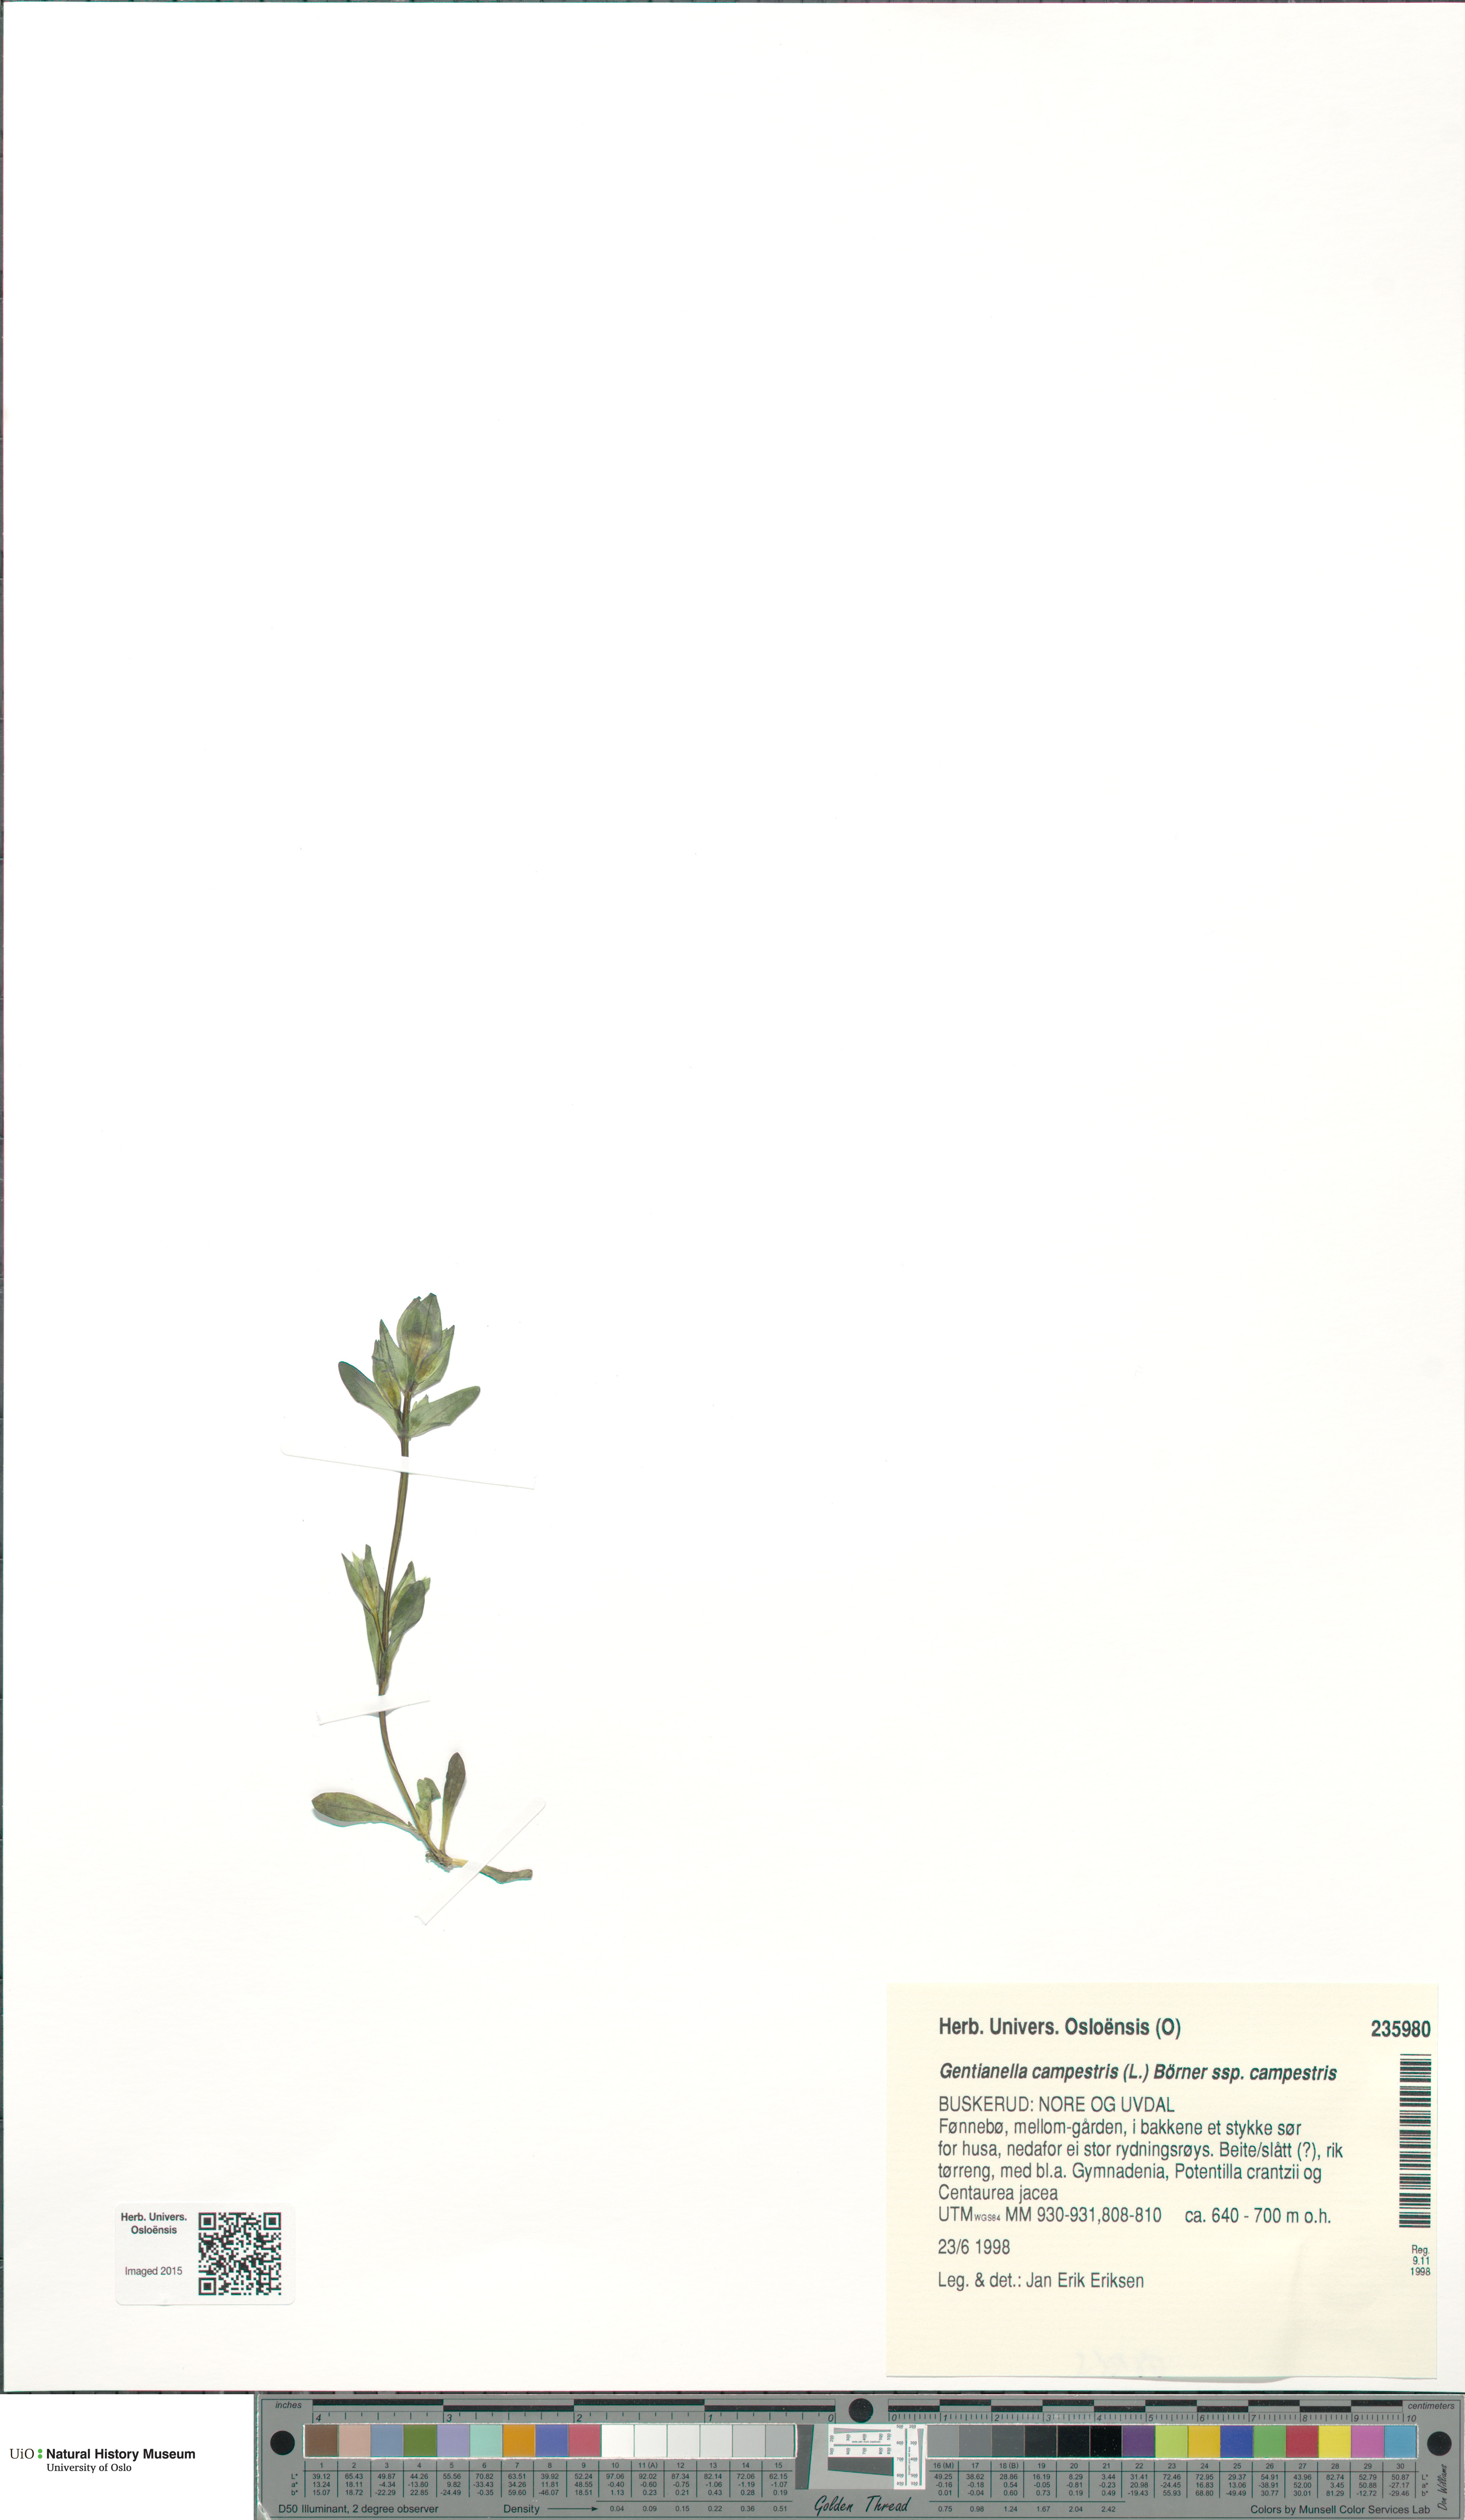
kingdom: Plantae
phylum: Tracheophyta
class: Magnoliopsida
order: Gentianales
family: Gentianaceae
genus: Gentianella
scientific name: Gentianella campestris
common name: Field gentian
